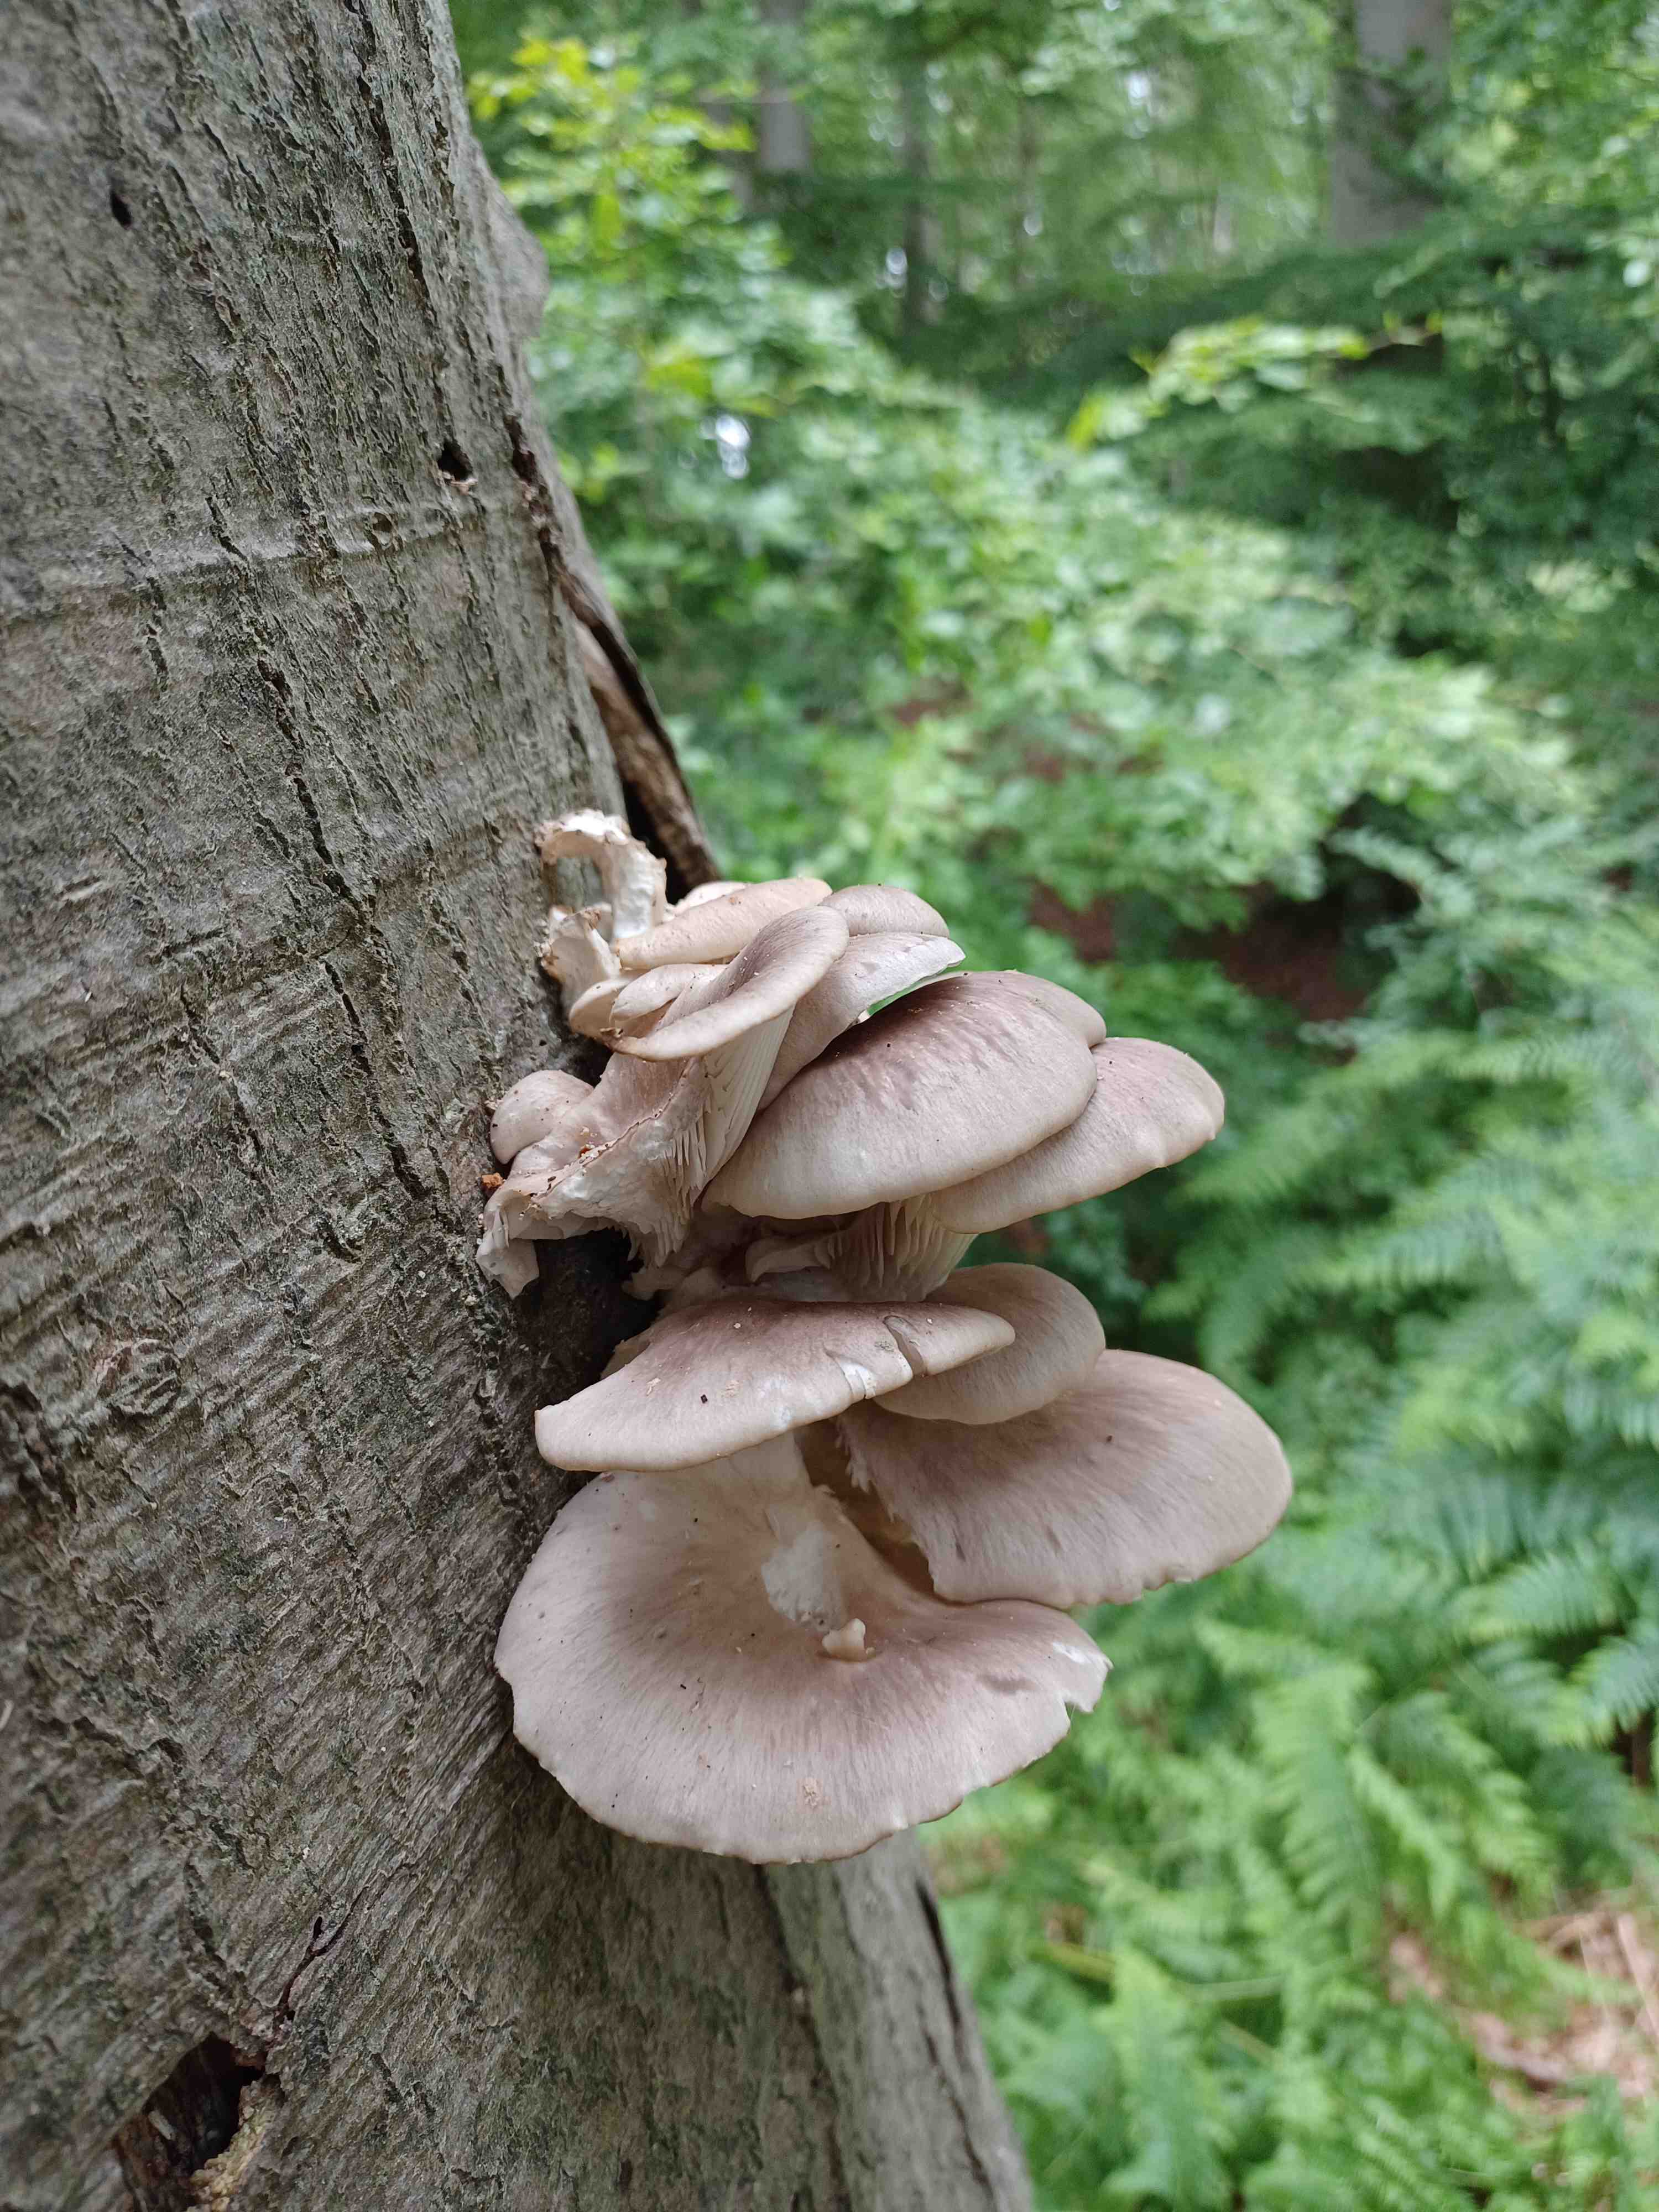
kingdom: Fungi
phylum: Basidiomycota
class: Agaricomycetes
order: Agaricales
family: Pleurotaceae
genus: Pleurotus
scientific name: Pleurotus pulmonarius
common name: sommer-østershat
